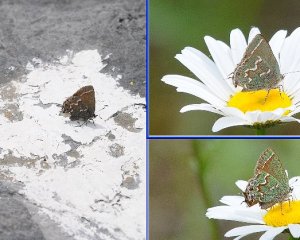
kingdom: Animalia
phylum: Arthropoda
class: Insecta
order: Lepidoptera
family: Lycaenidae
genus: Mitoura
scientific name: Mitoura gryneus
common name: Juniper Hairstreak
